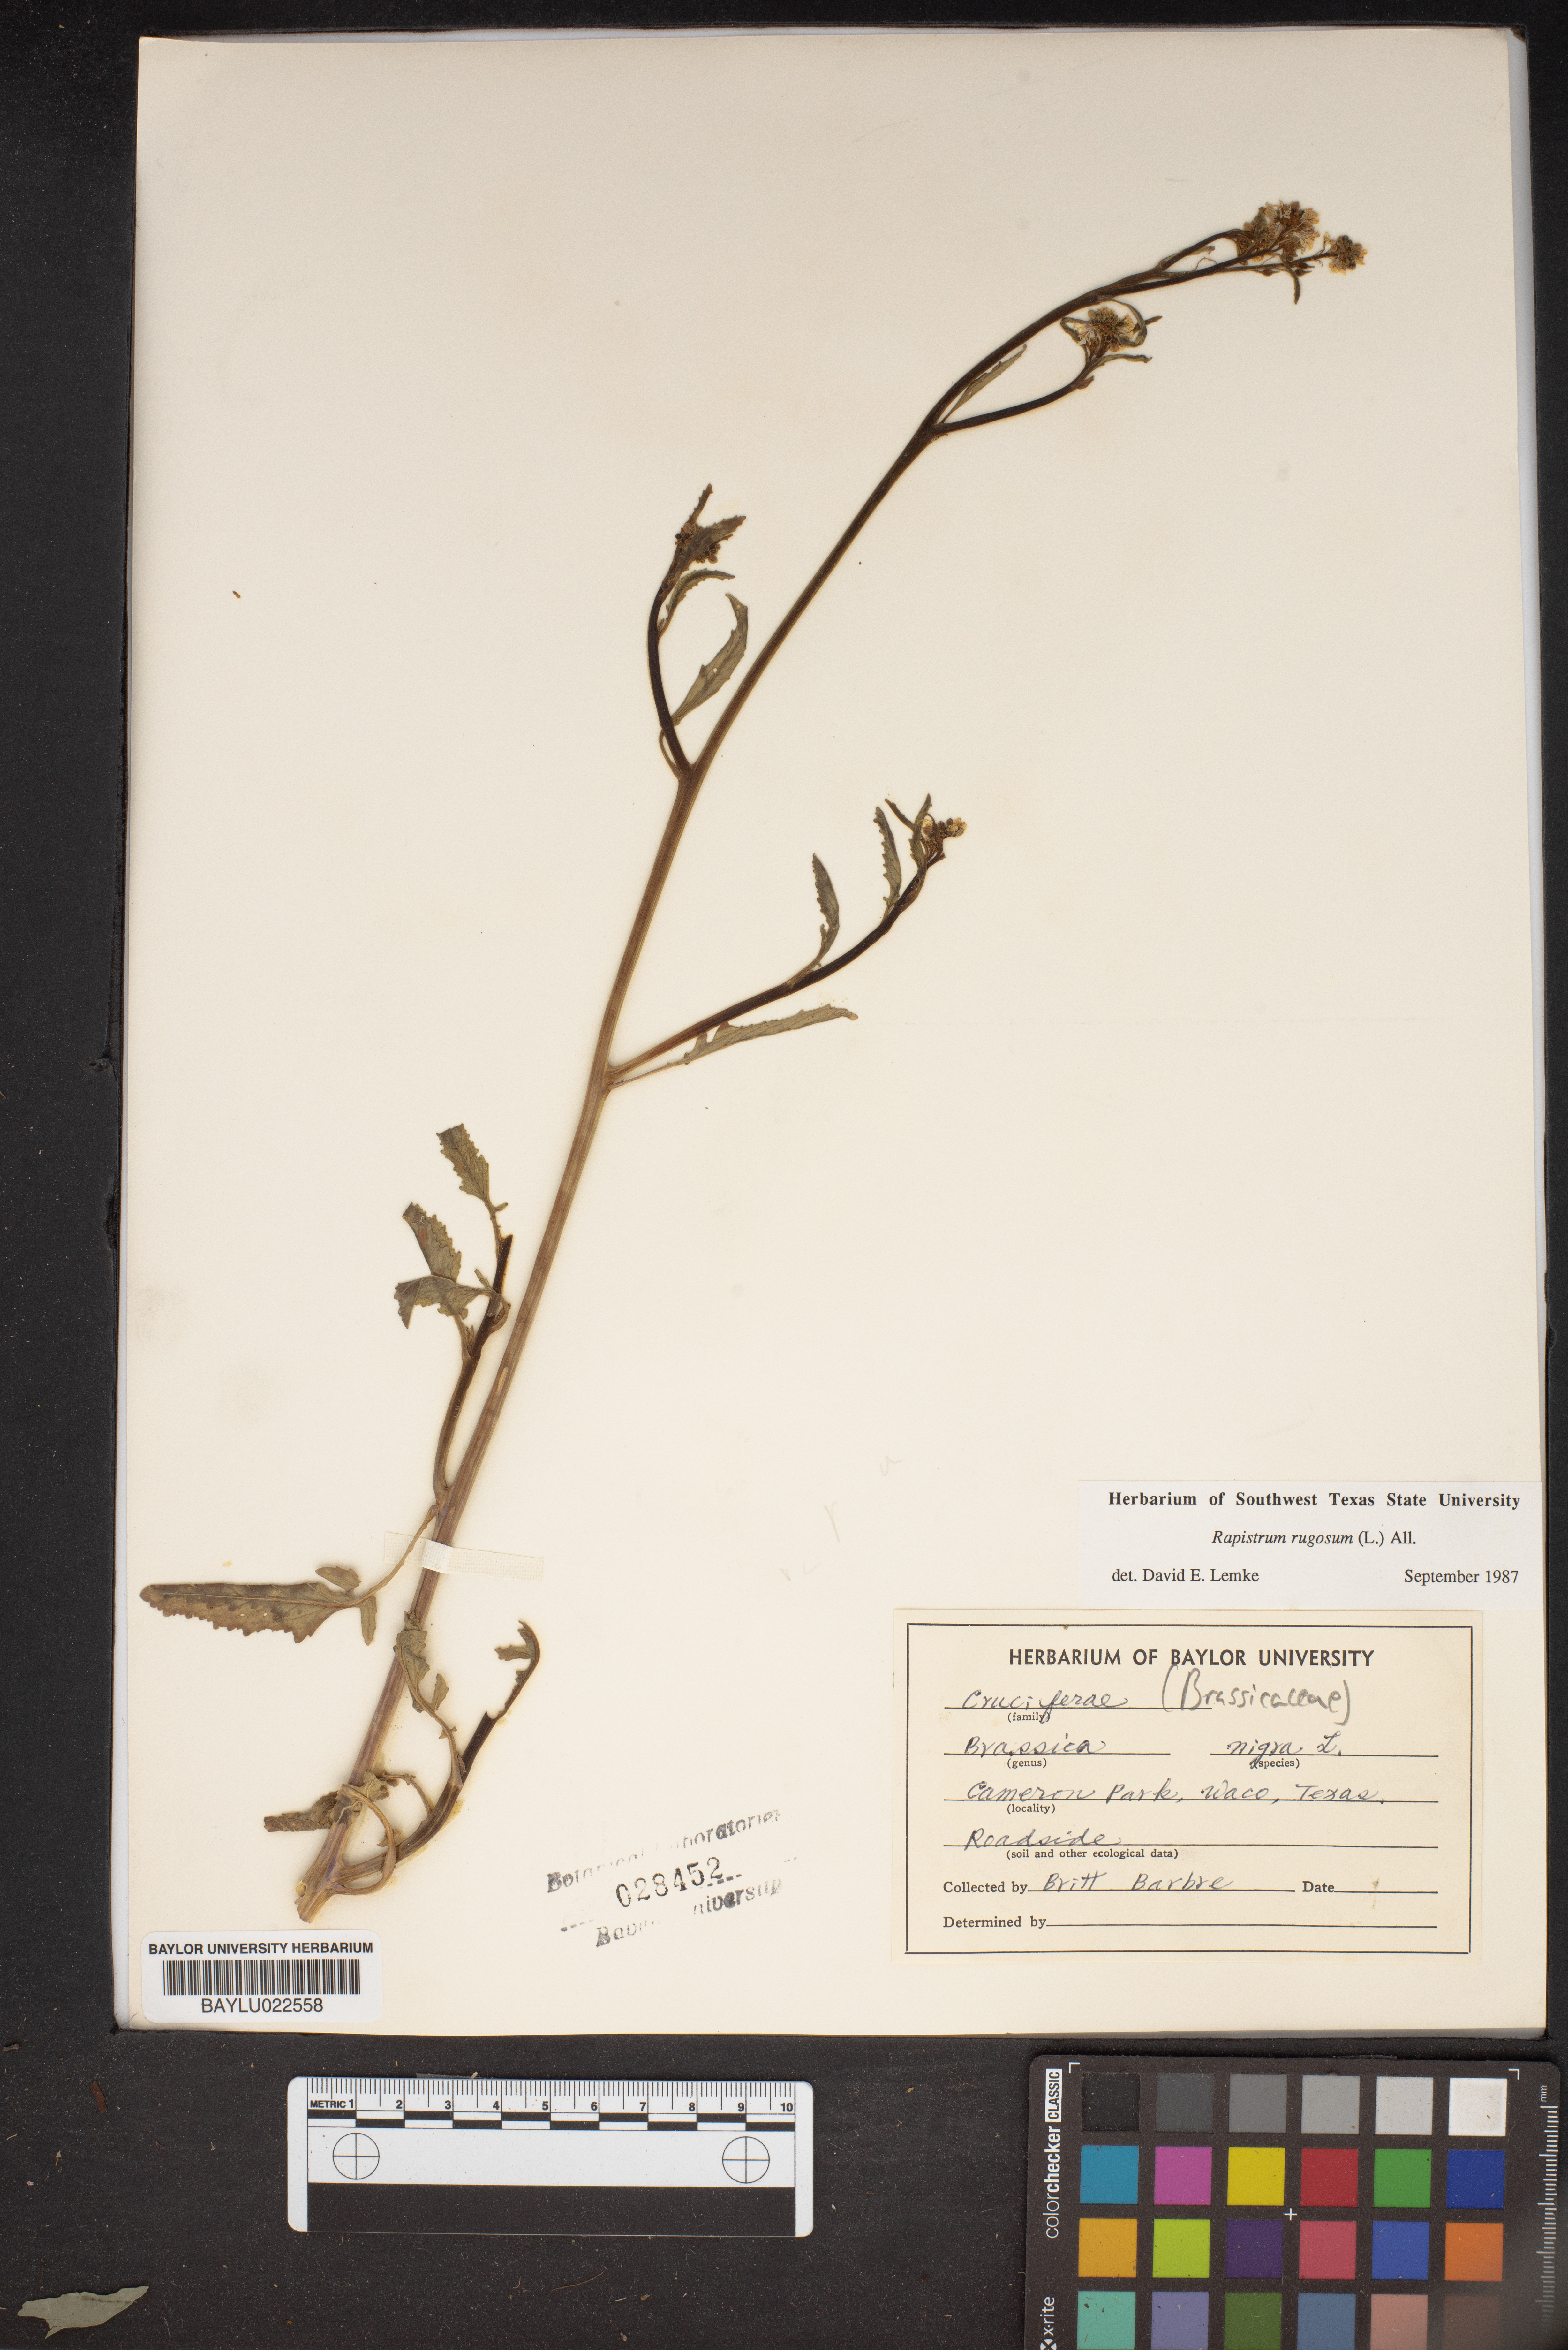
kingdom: Plantae
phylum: Tracheophyta
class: Magnoliopsida
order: Brassicales
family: Brassicaceae
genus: Brassica
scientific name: Brassica nigra
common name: Black mustard
